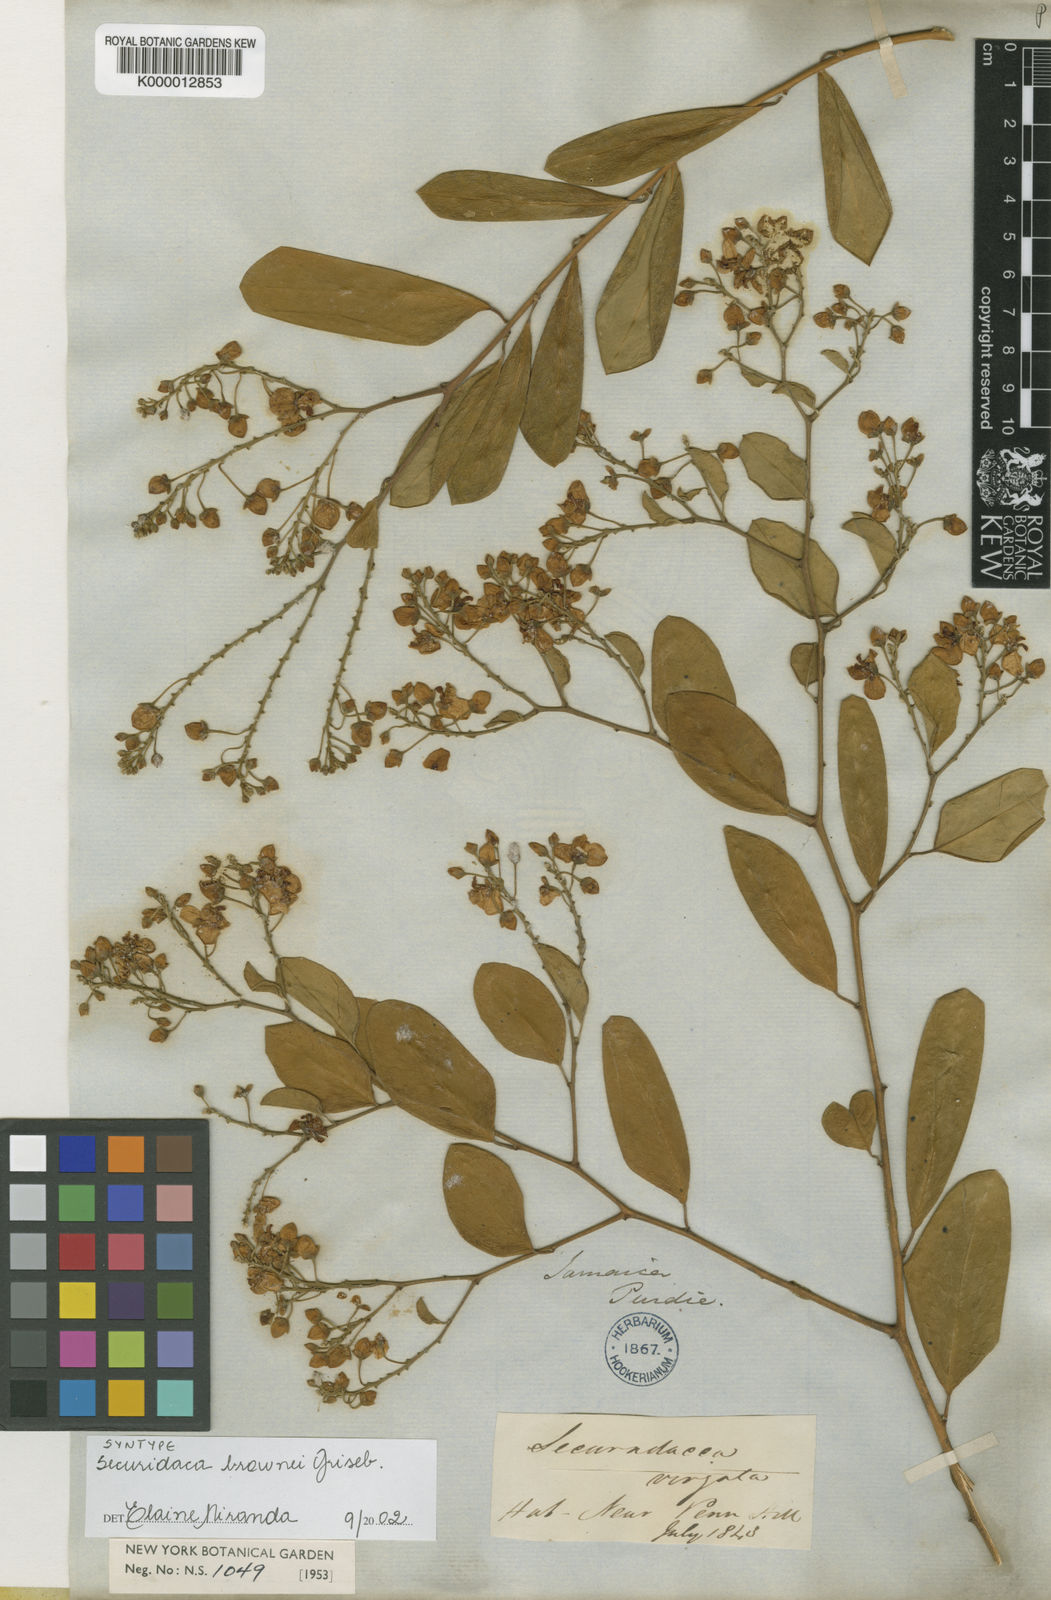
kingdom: Plantae
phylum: Tracheophyta
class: Magnoliopsida
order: Fabales
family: Polygalaceae
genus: Securidaca
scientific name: Securidaca brownii
